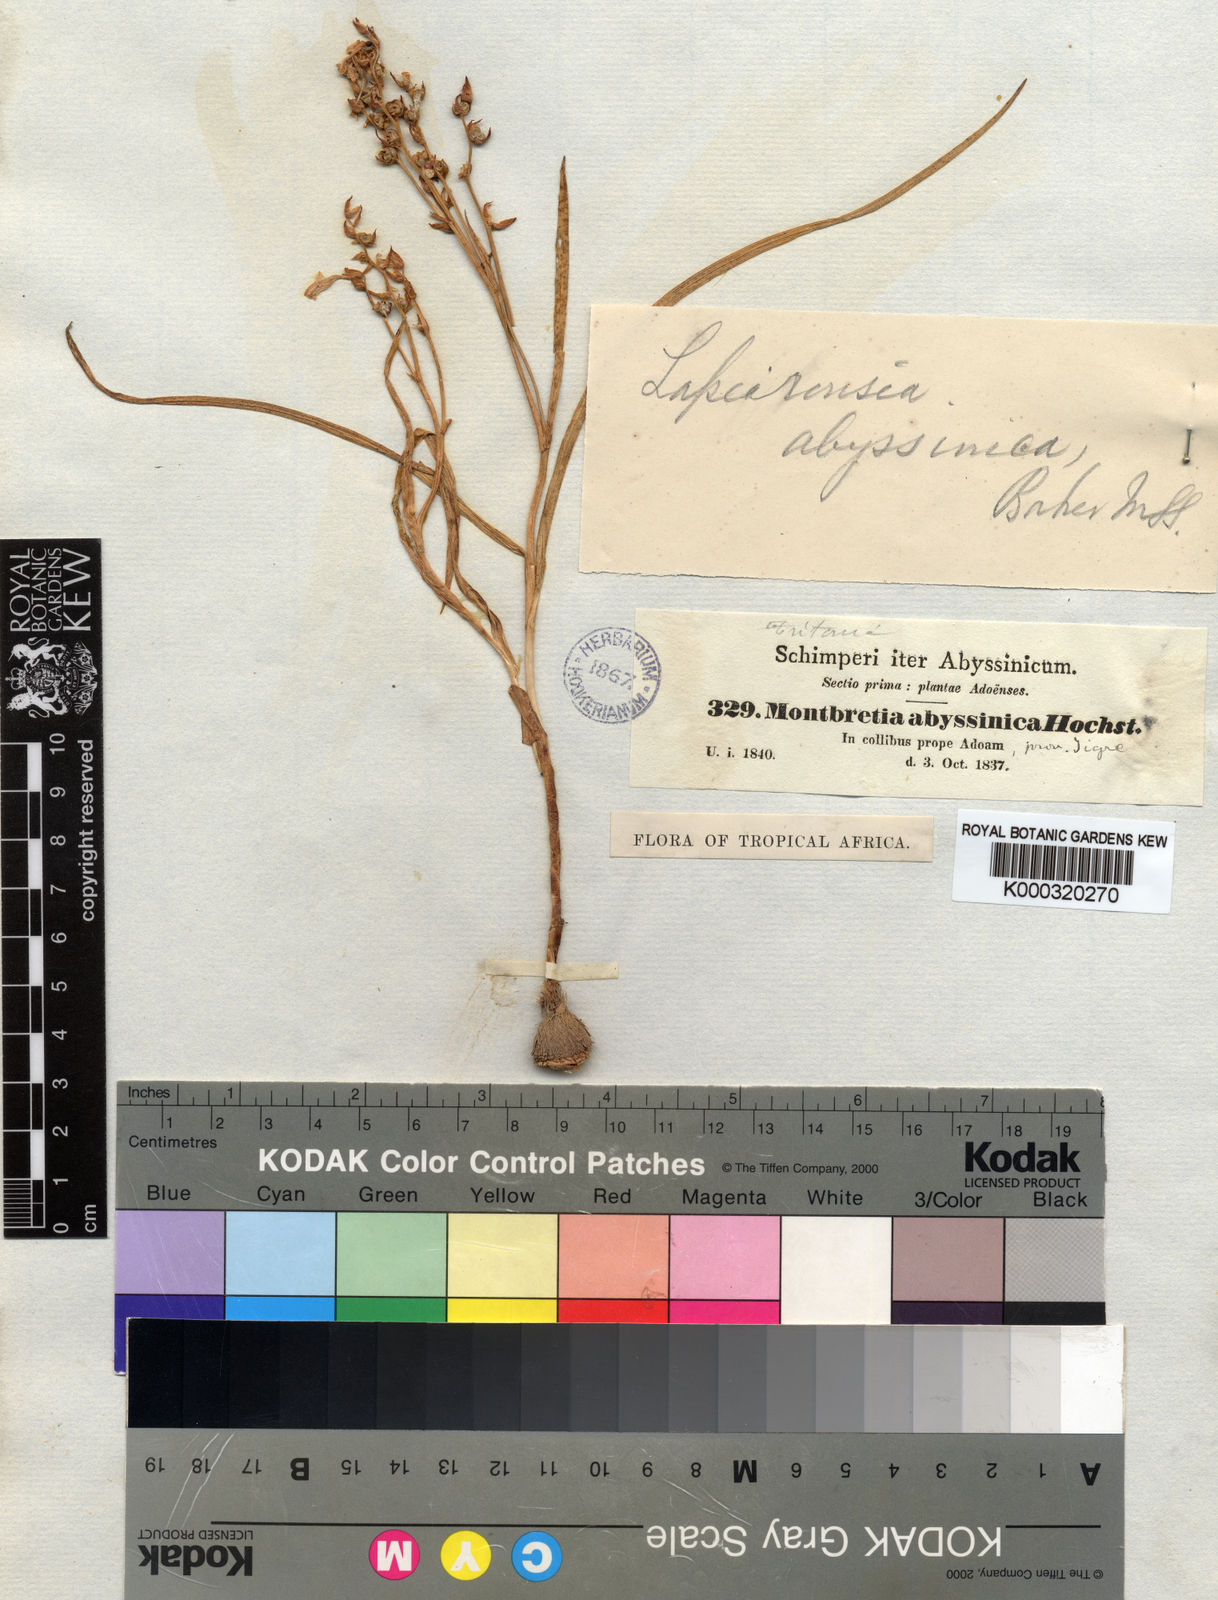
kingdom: Plantae
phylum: Tracheophyta
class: Liliopsida
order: Asparagales
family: Iridaceae
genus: Afrosolen
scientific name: Afrosolen abyssinicus
